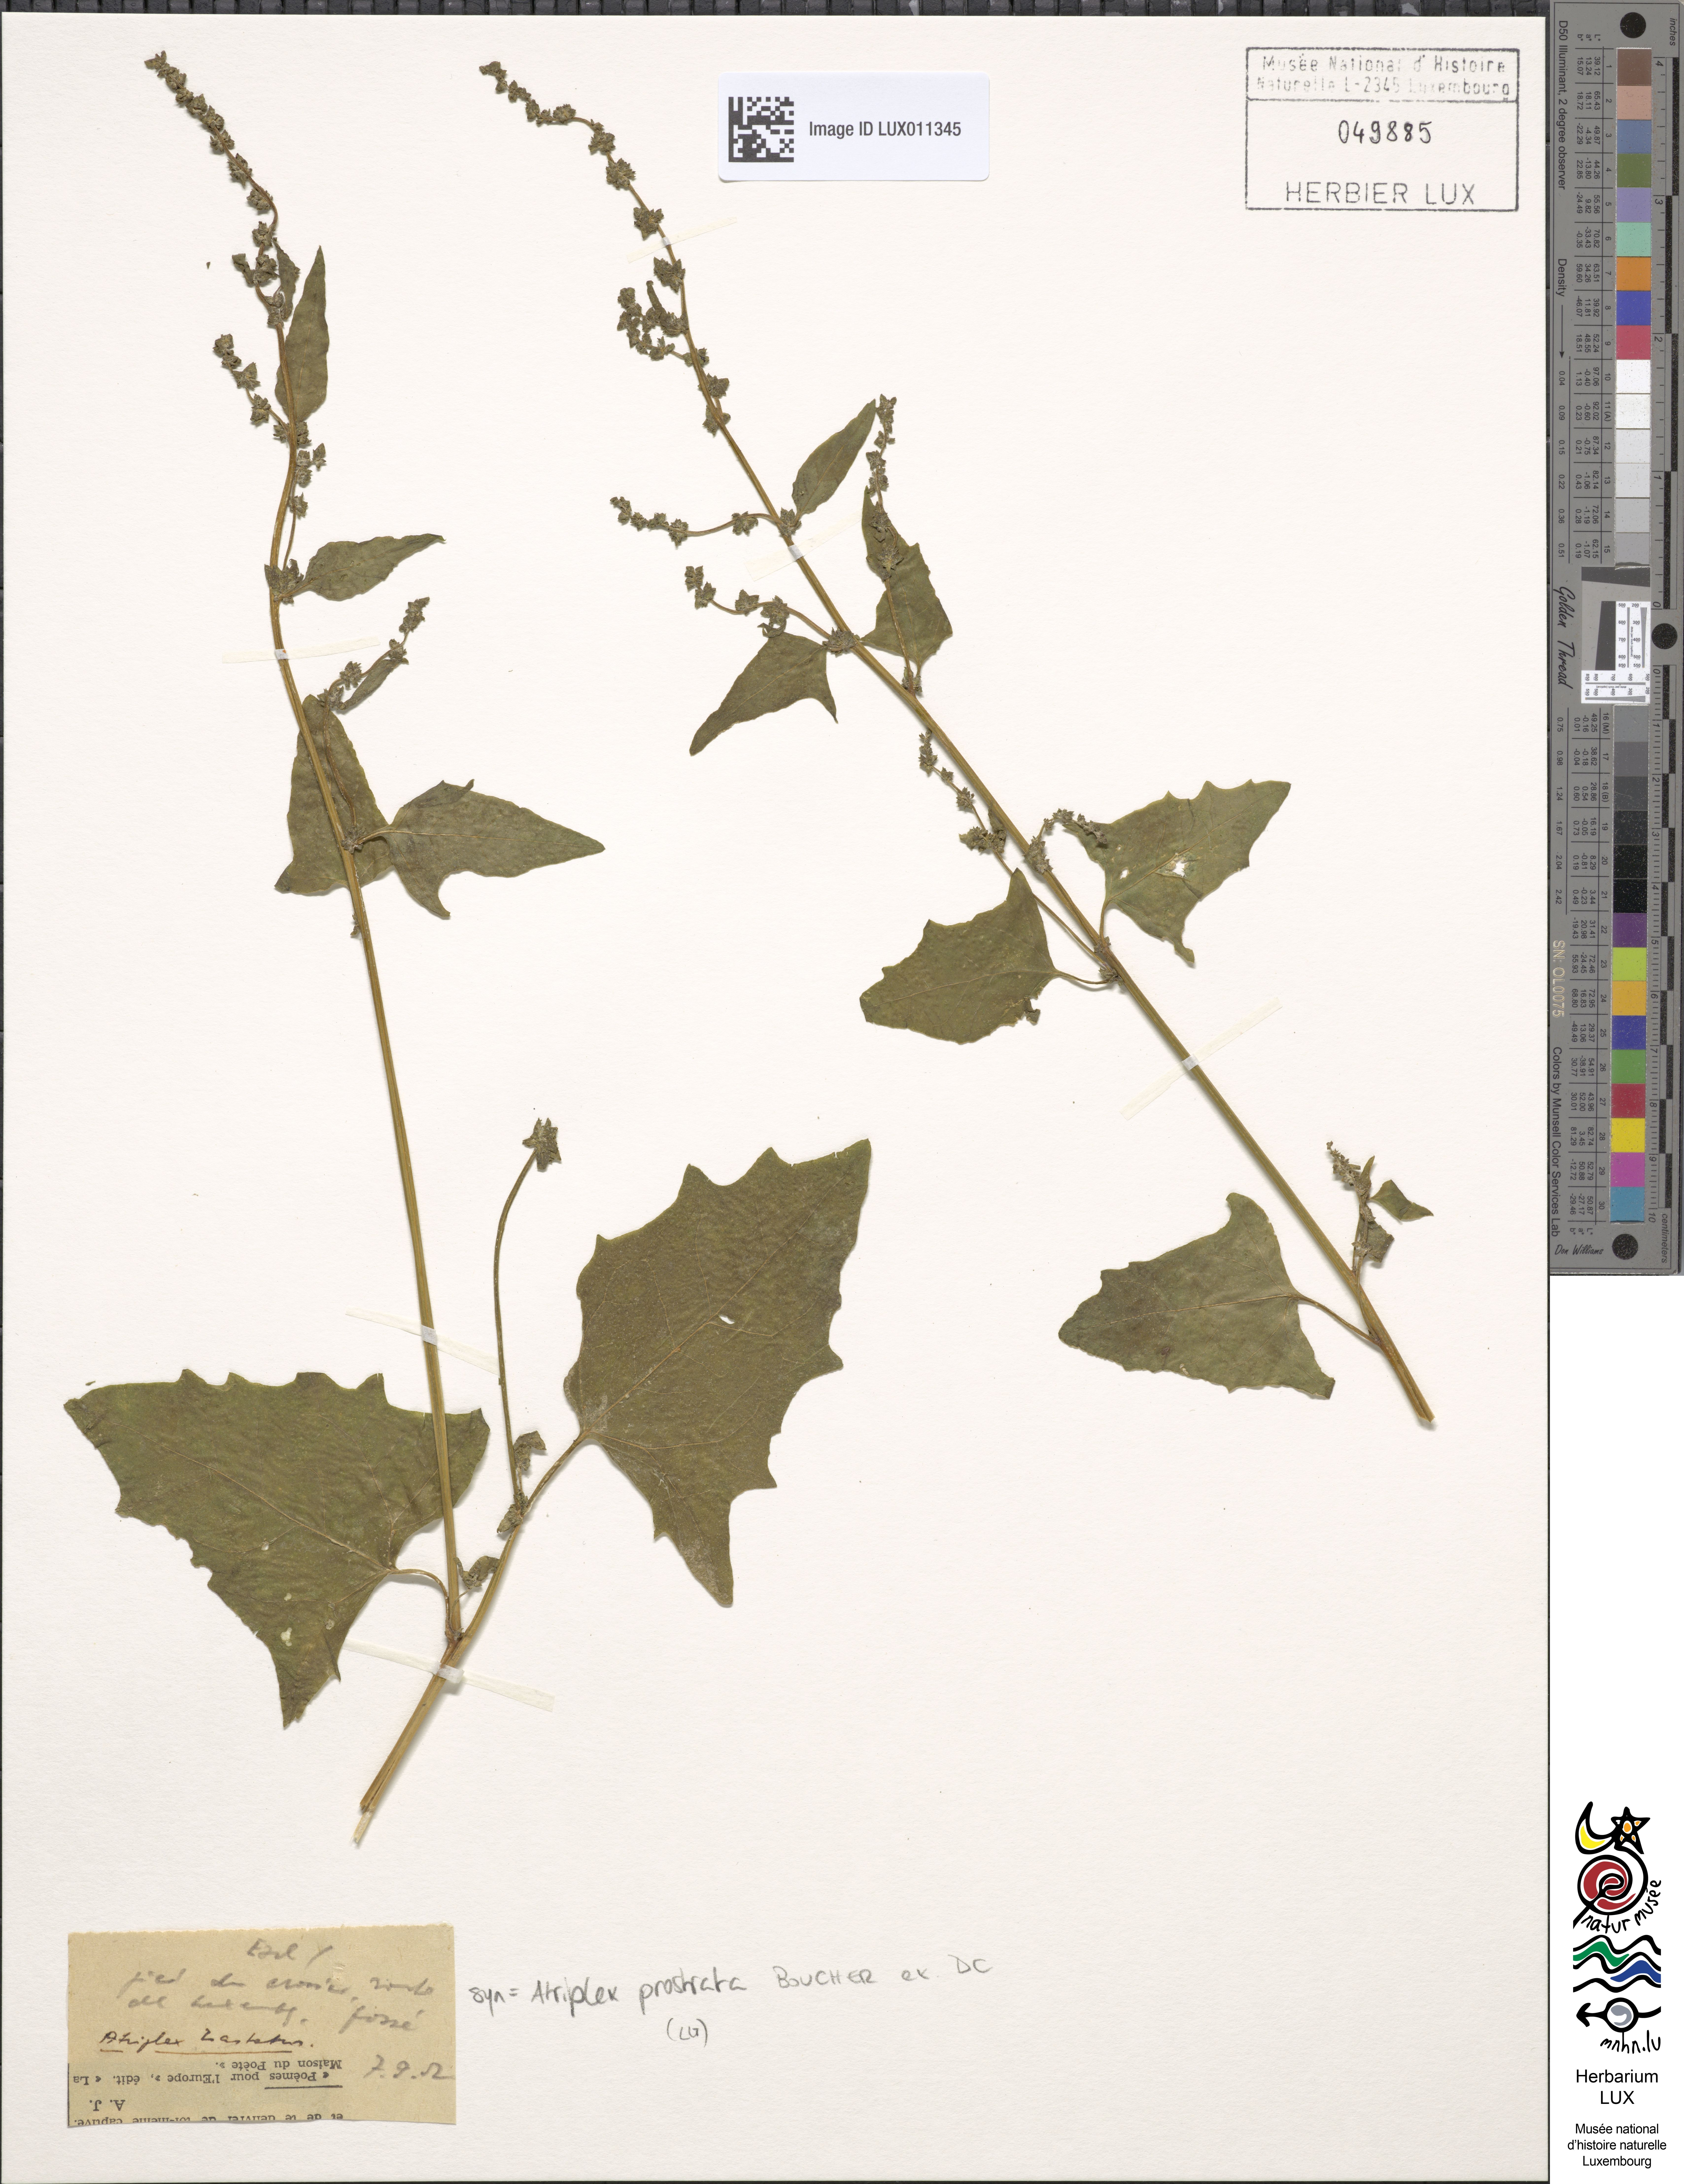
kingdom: Plantae
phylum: Tracheophyta
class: Magnoliopsida
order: Caryophyllales
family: Amaranthaceae
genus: Atriplex
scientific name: Atriplex
